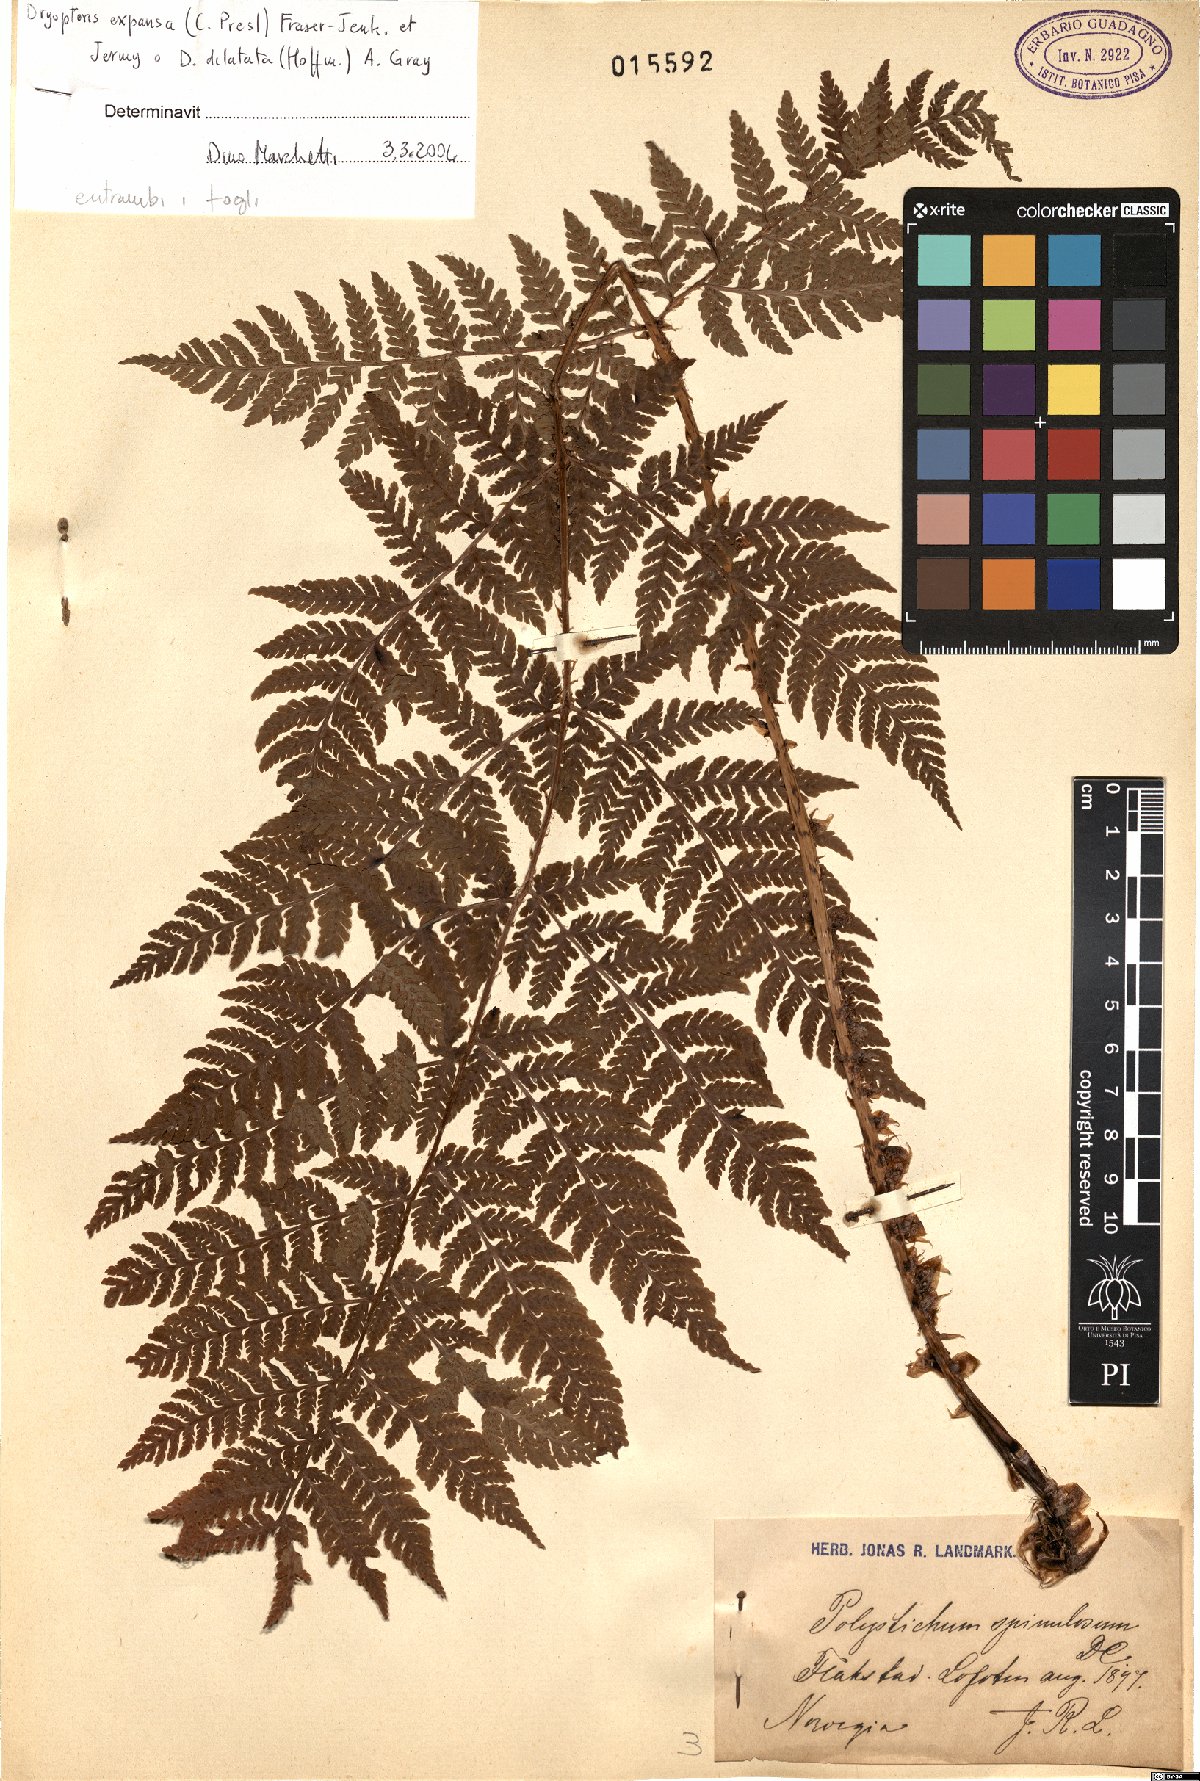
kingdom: Plantae
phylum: Tracheophyta
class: Polypodiopsida
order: Polypodiales
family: Dryopteridaceae
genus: Dryopteris
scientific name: Dryopteris expansa
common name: Northern buckler fern
